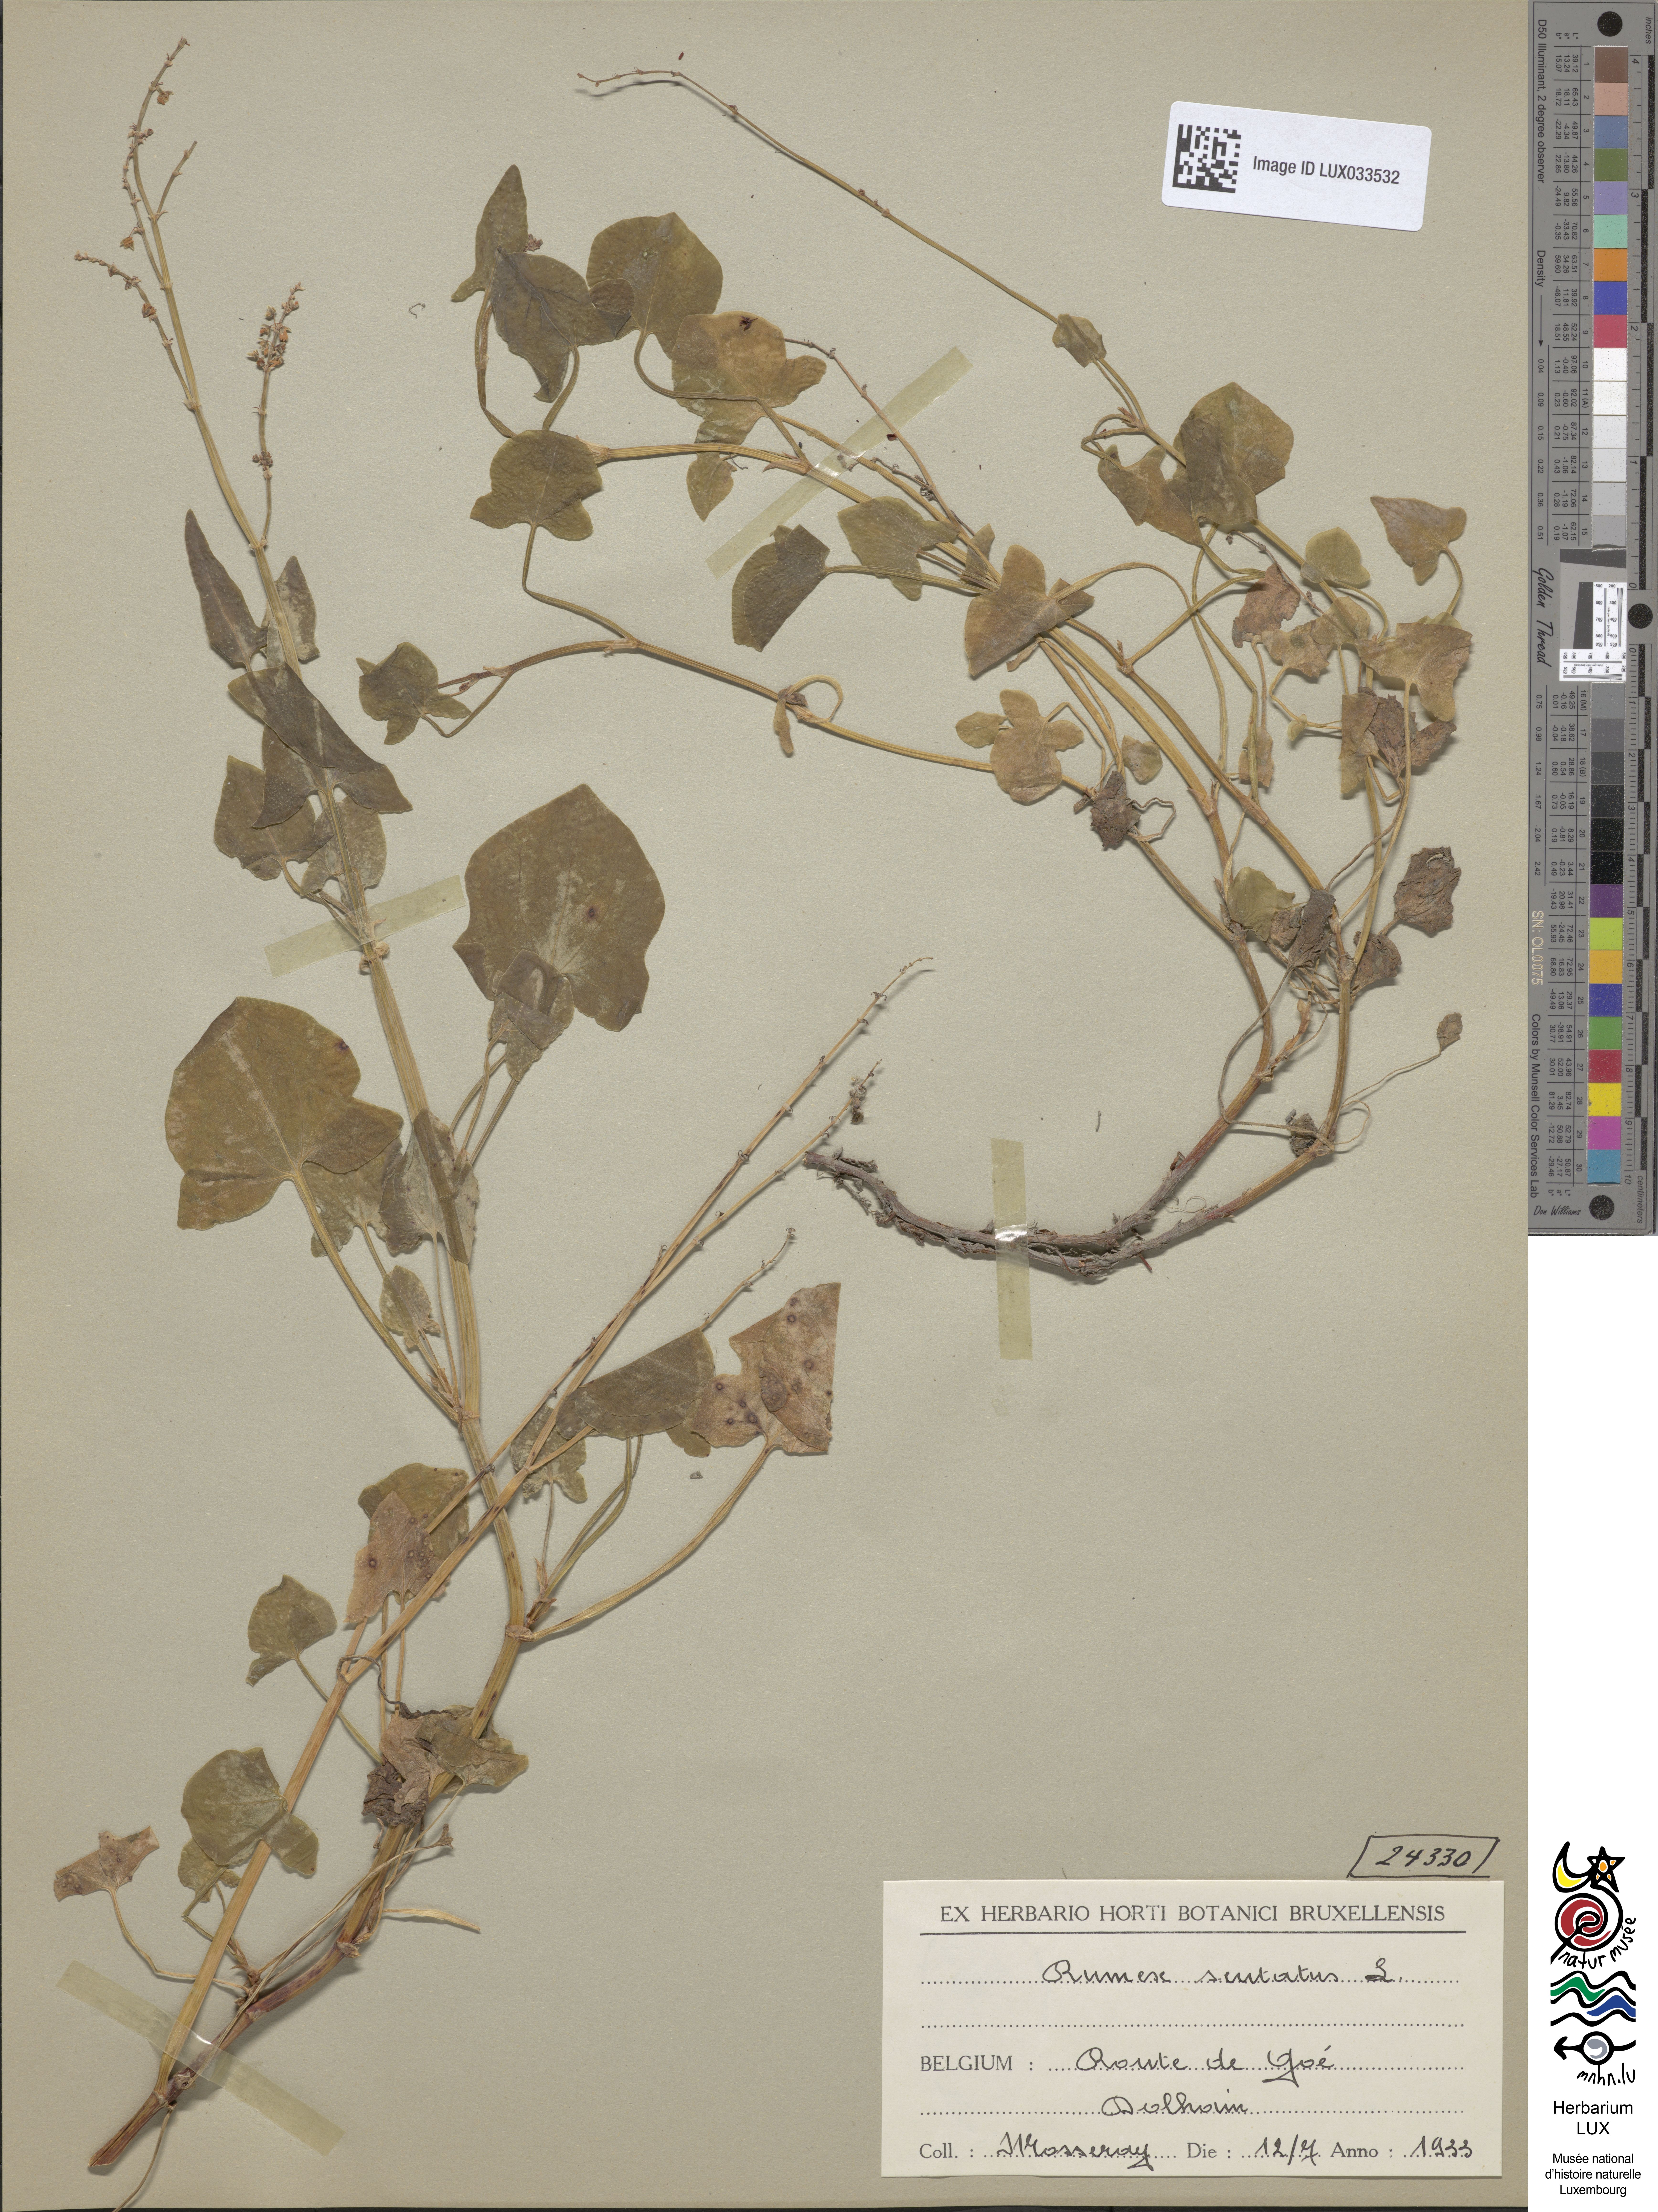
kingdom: Plantae
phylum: Tracheophyta
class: Magnoliopsida
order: Caryophyllales
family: Polygonaceae
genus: Rumex
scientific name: Rumex scutatus
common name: French sorrel
